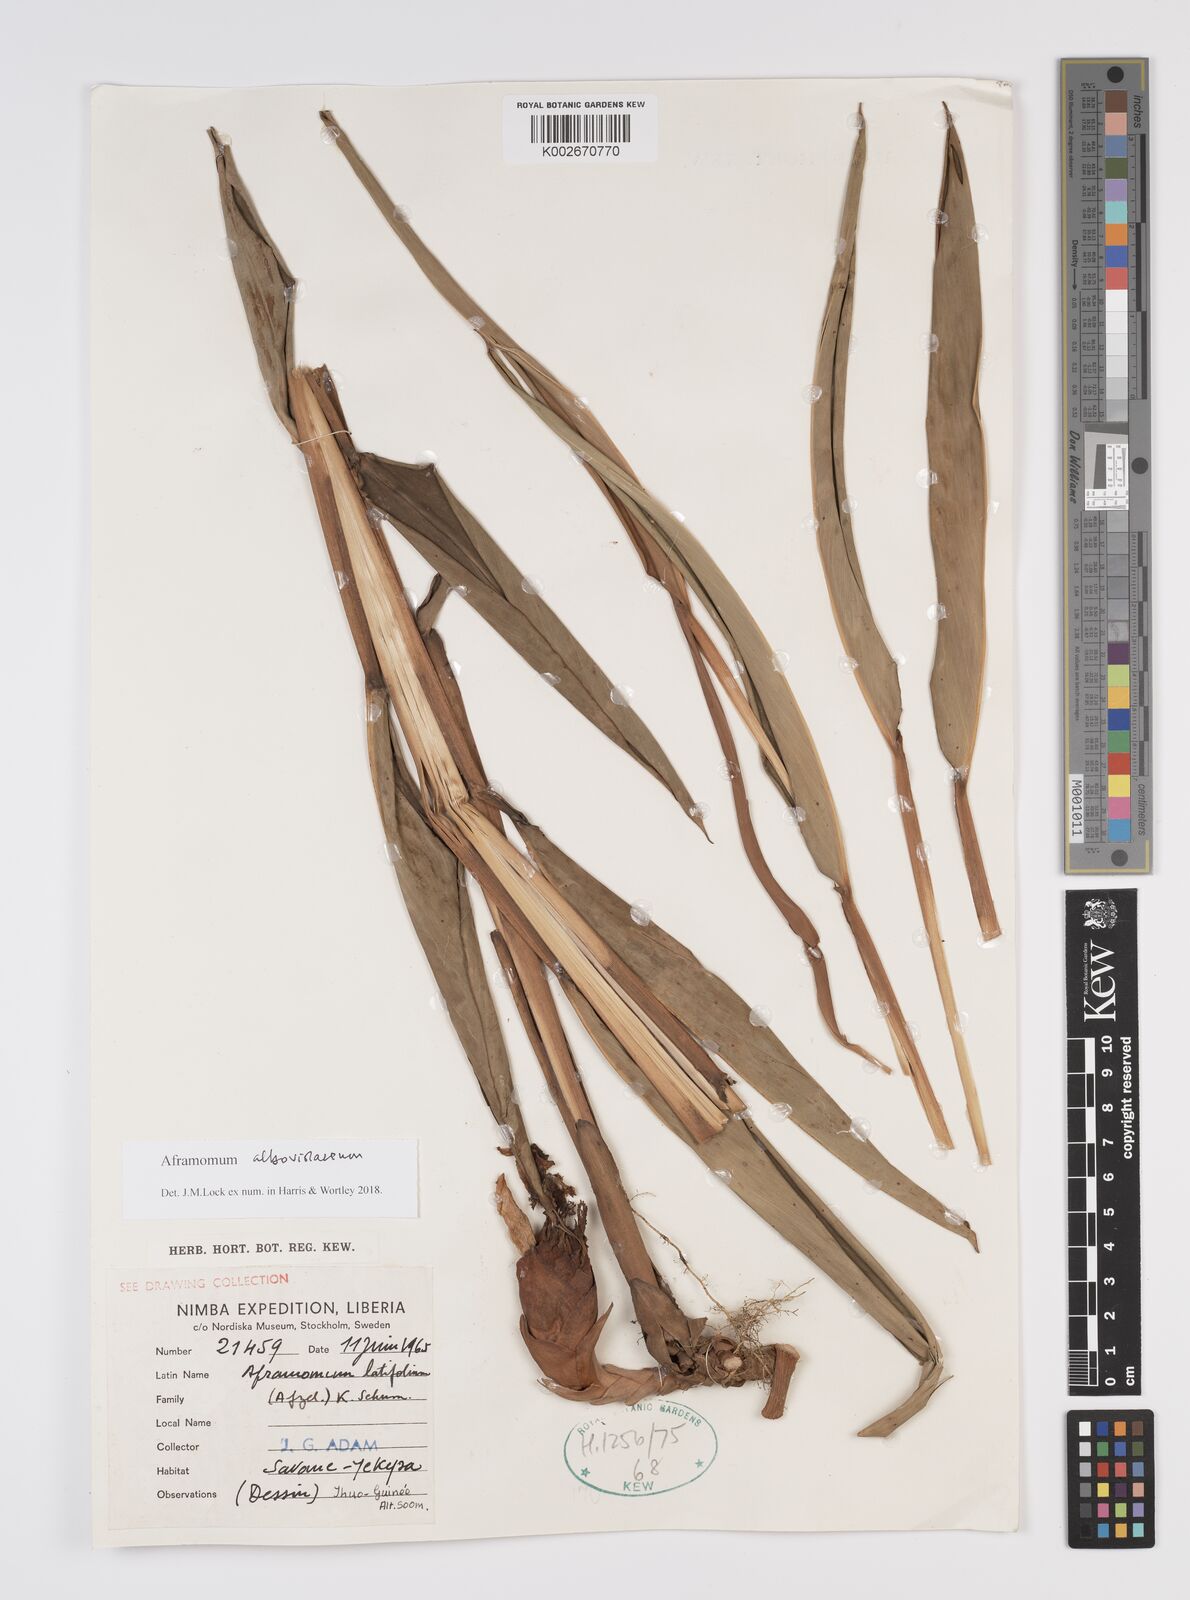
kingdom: Plantae
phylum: Tracheophyta
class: Liliopsida
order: Zingiberales
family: Zingiberaceae
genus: Aframomum
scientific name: Aframomum alboviolaceum
